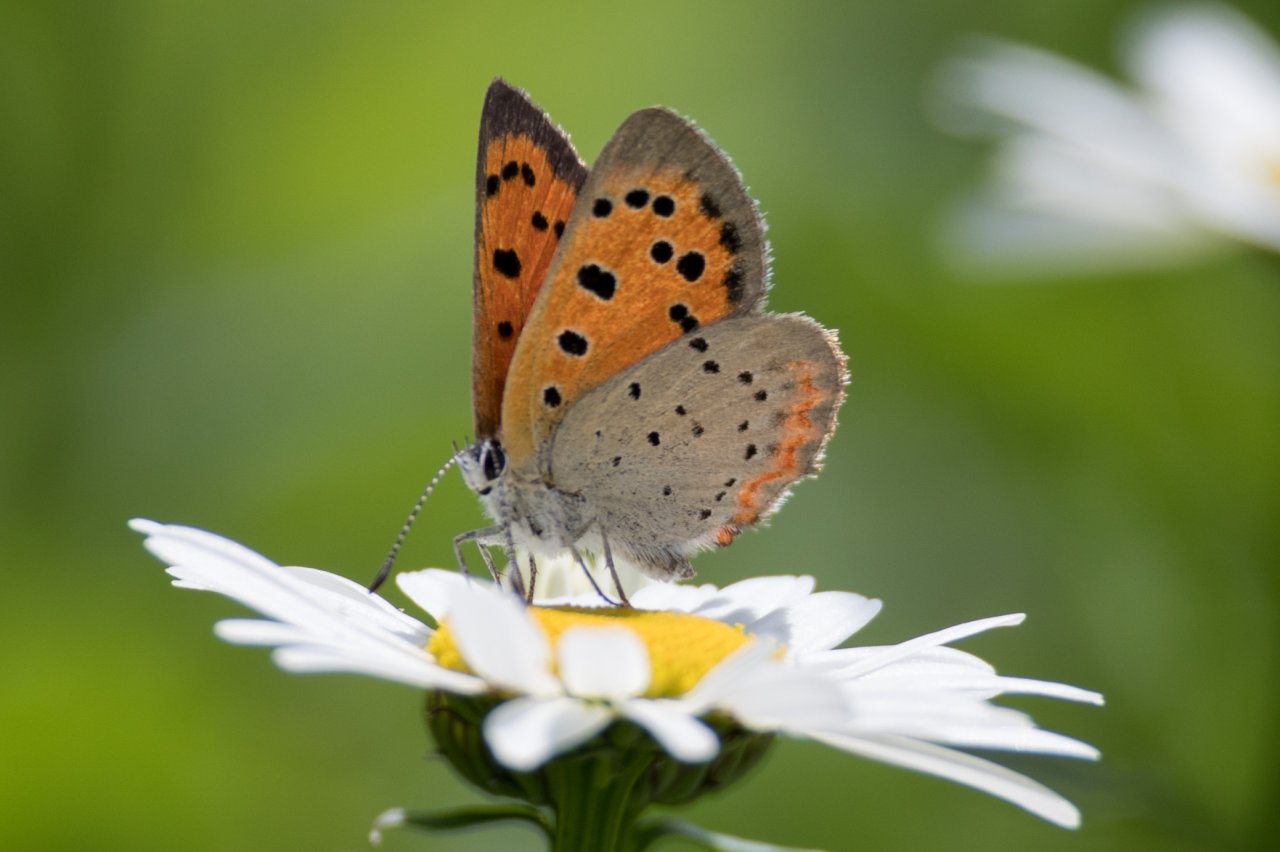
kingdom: Animalia
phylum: Arthropoda
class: Insecta
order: Lepidoptera
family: Lycaenidae
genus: Lycaena
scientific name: Lycaena phlaeas
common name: American Copper
